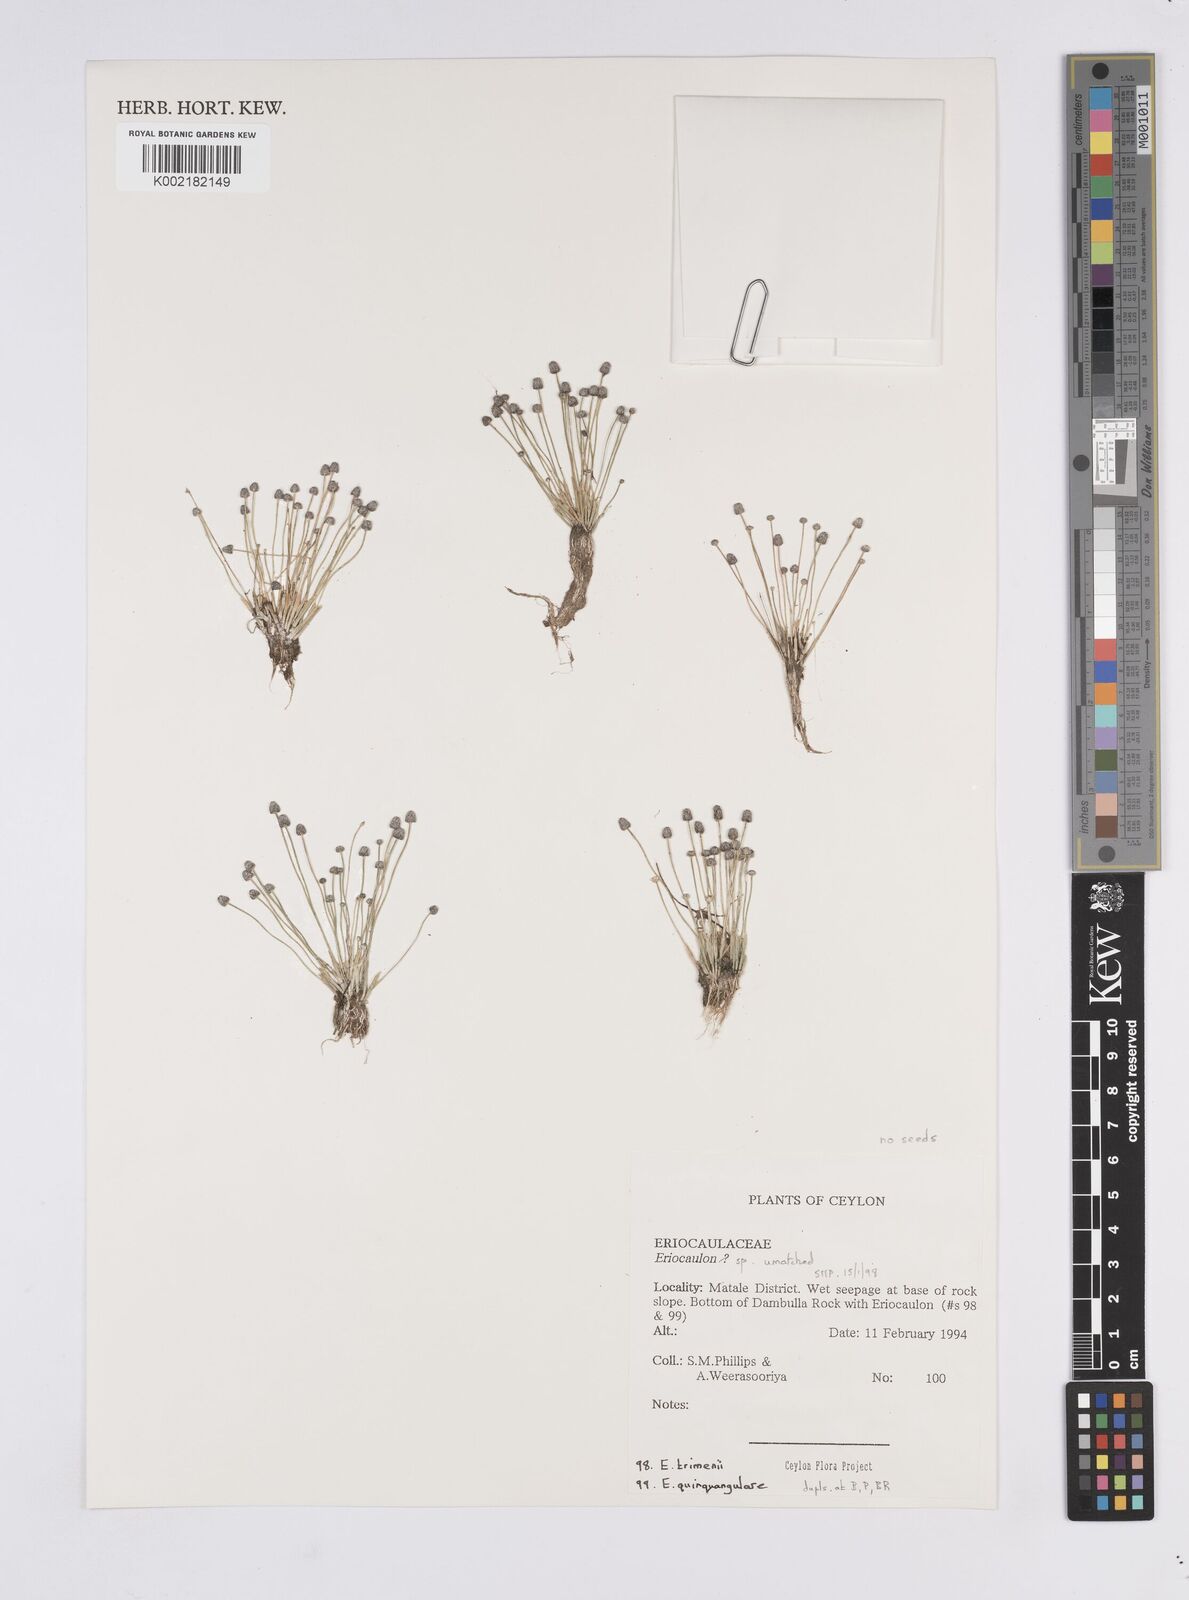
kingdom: Plantae
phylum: Tracheophyta
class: Liliopsida
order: Poales
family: Eriocaulaceae
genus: Eriocaulon
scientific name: Eriocaulon
